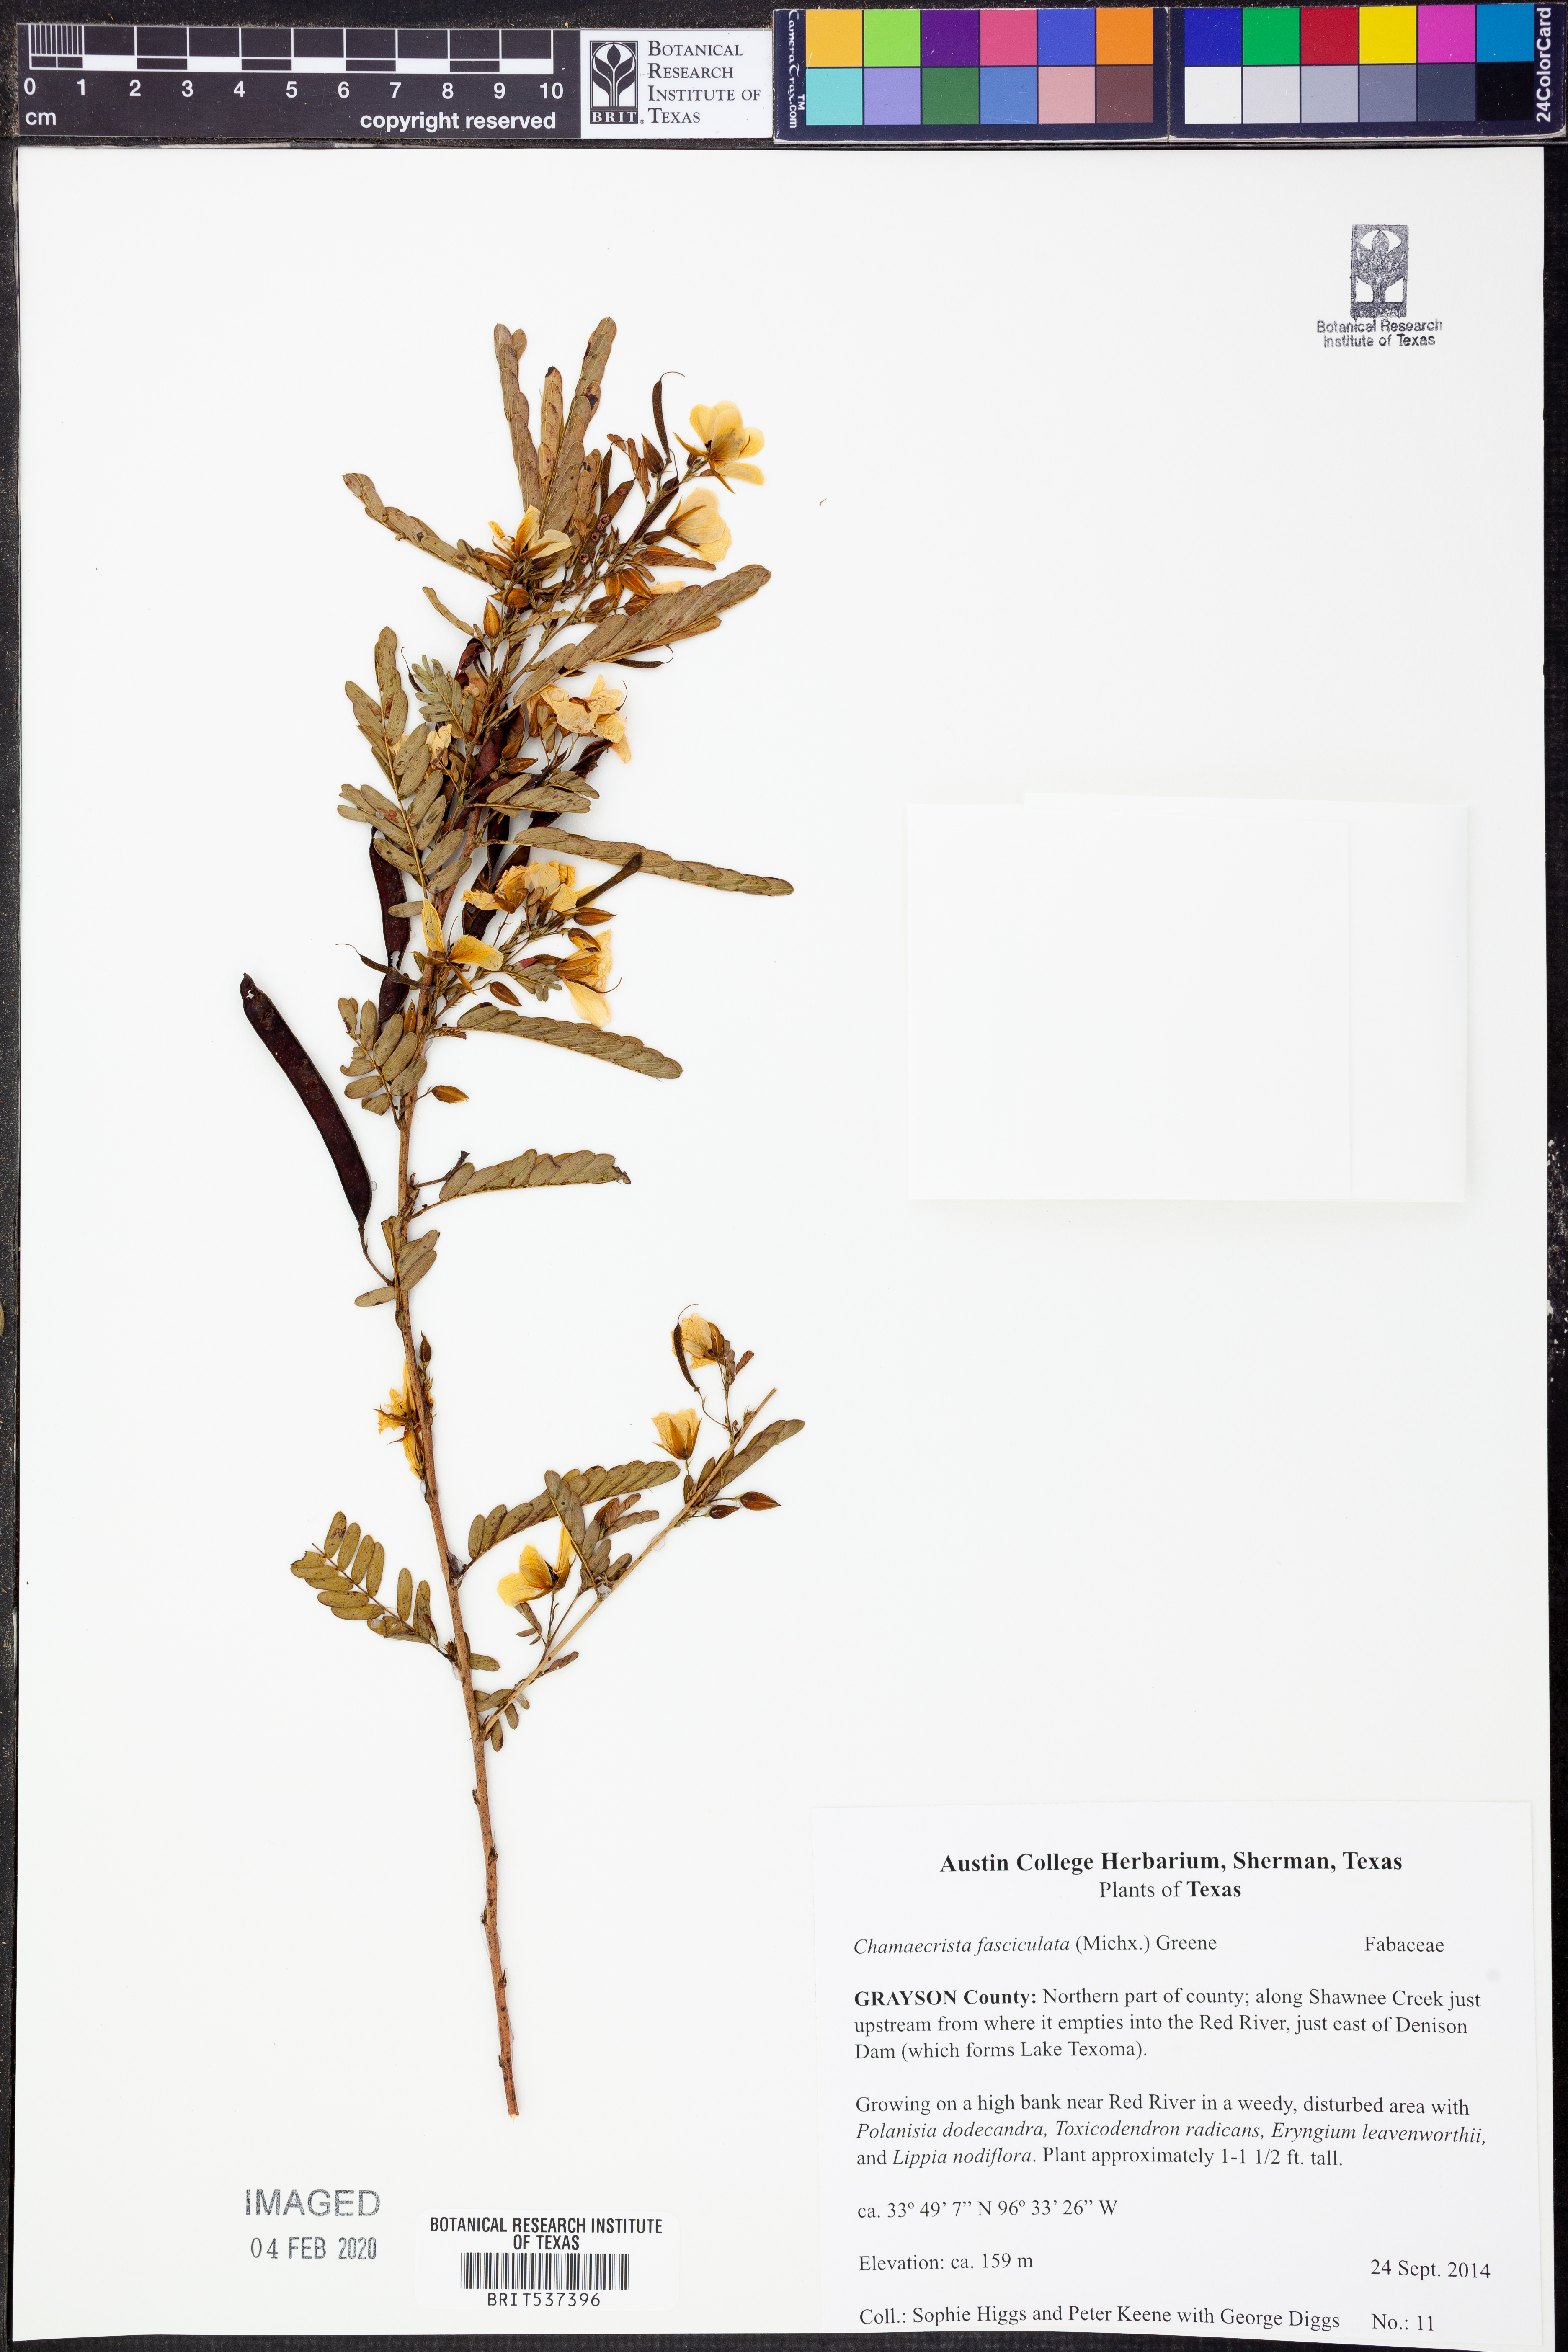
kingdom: Plantae
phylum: Tracheophyta
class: Magnoliopsida
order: Fabales
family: Fabaceae
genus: Chamaecrista
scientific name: Chamaecrista fasciculata
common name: Golden cassia
